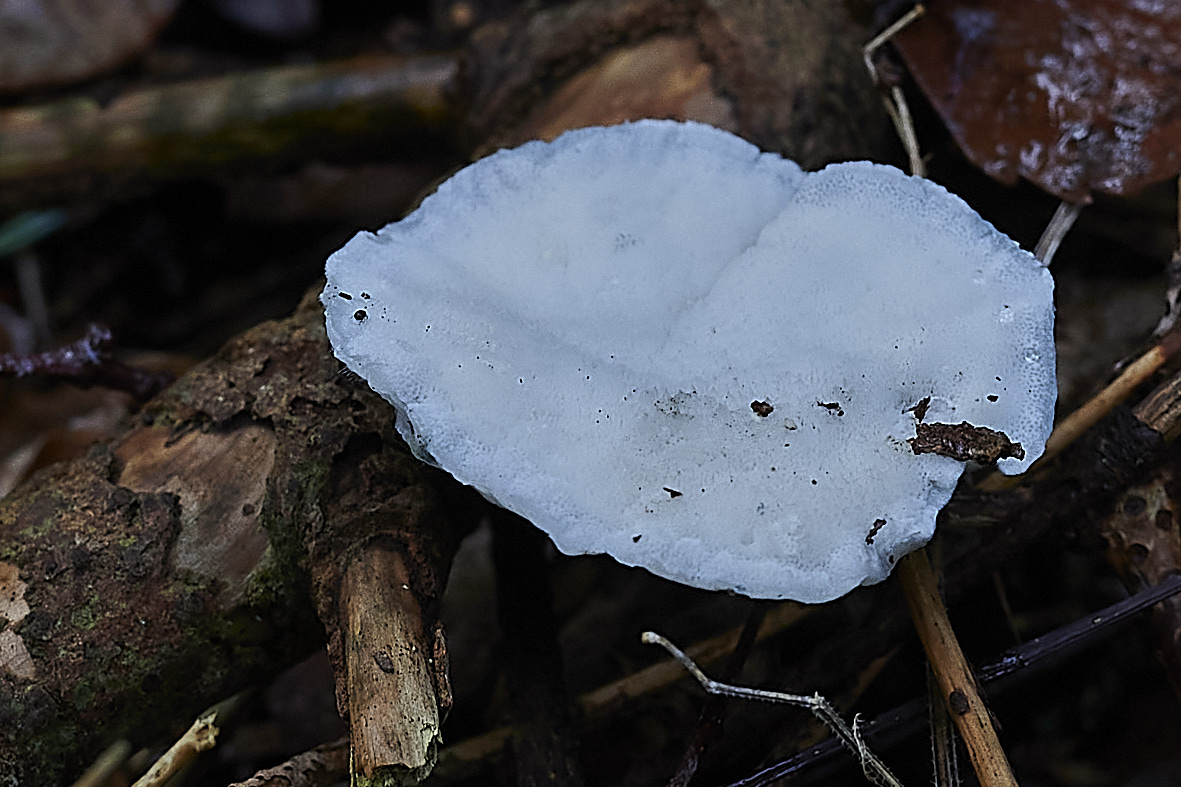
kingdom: Fungi
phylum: Basidiomycota
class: Agaricomycetes
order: Polyporales
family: Polyporaceae
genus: Cyanosporus
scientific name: Cyanosporus caesius
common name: blålig kødporesvamp
